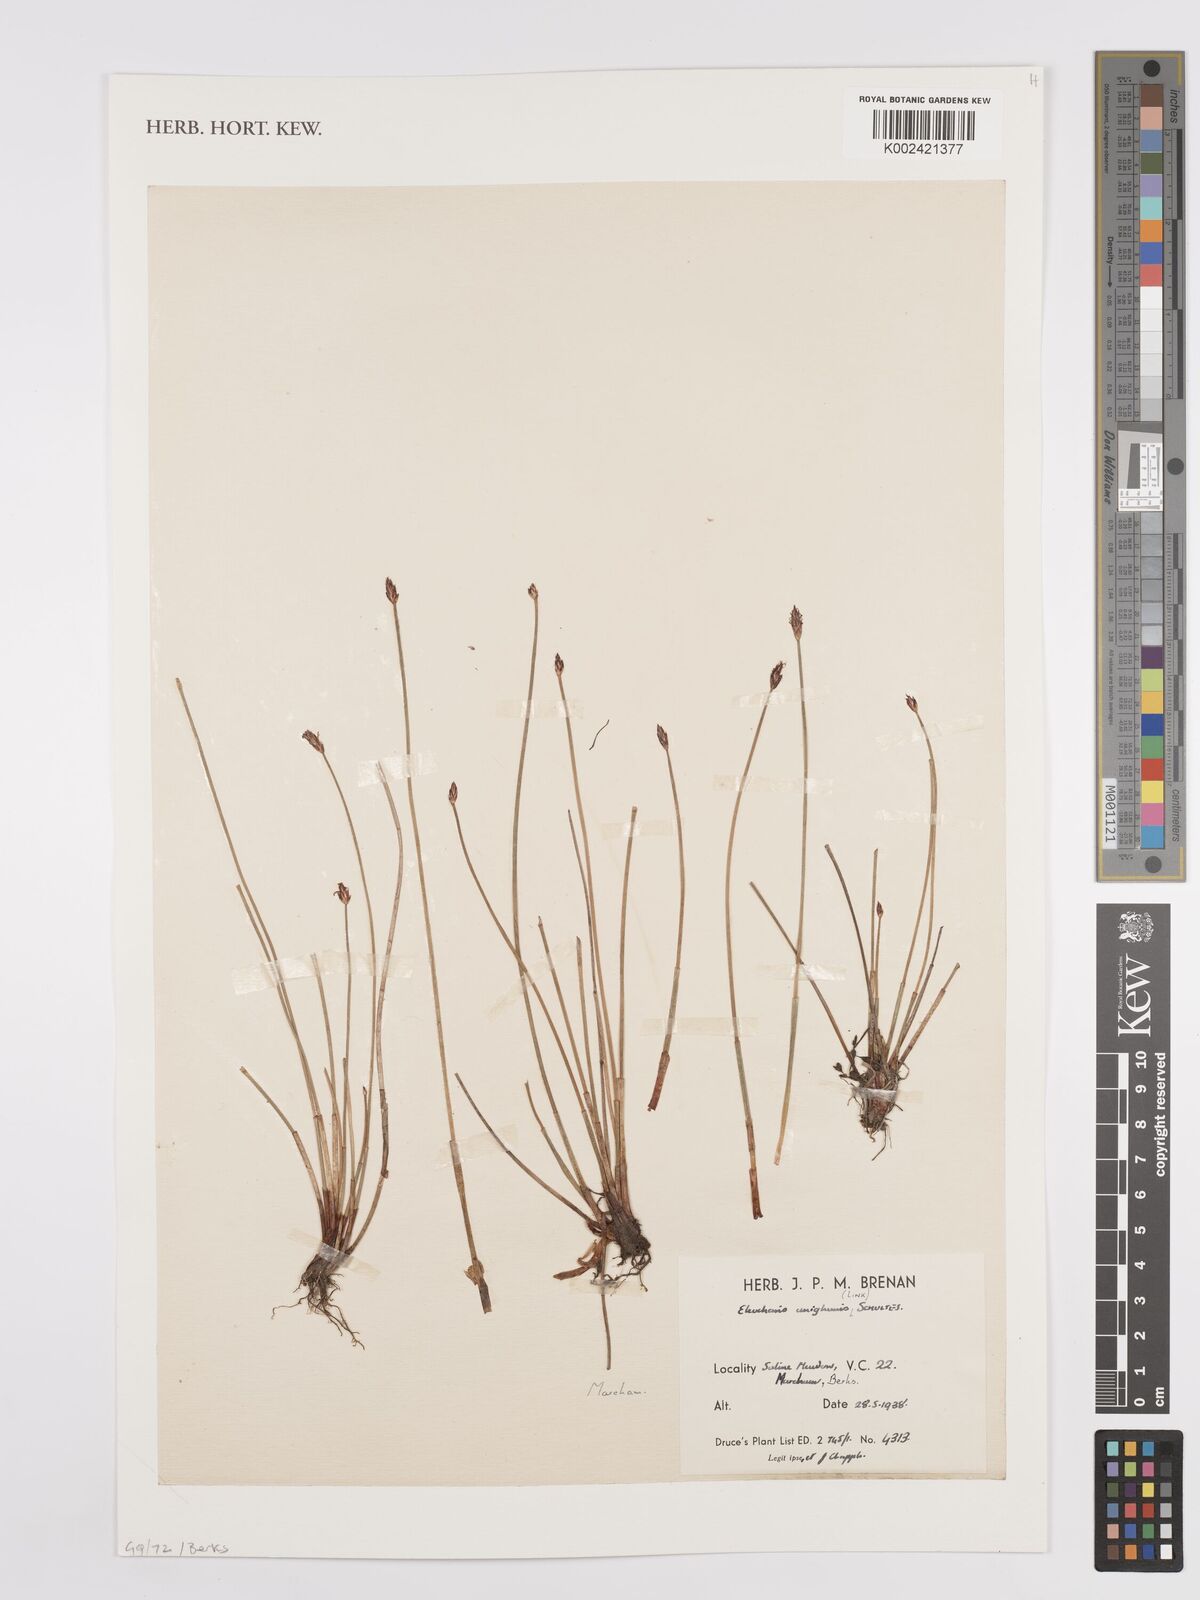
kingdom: Plantae
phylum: Tracheophyta
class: Liliopsida
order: Poales
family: Cyperaceae
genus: Eleocharis
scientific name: Eleocharis uniglumis
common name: Slender spike-rush
